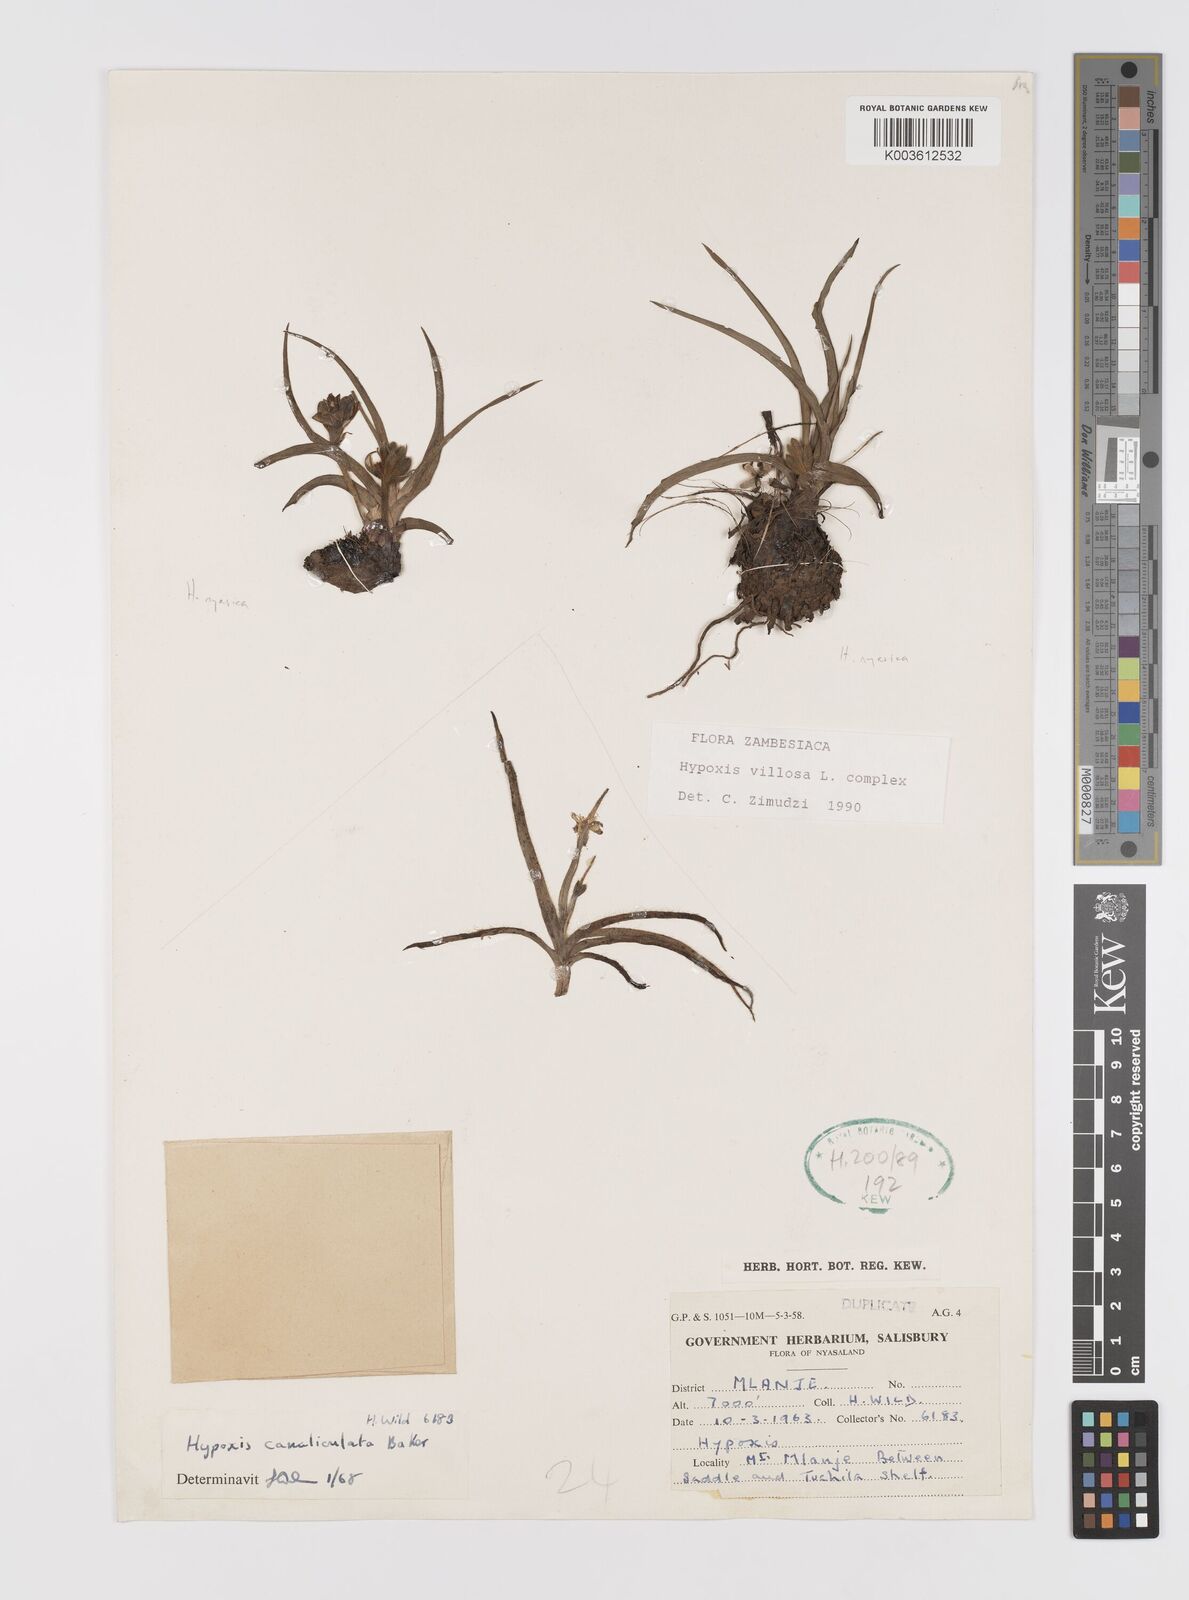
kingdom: Plantae
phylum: Tracheophyta
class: Liliopsida
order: Asparagales
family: Hypoxidaceae
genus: Hypoxis
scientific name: Hypoxis parvifolia
